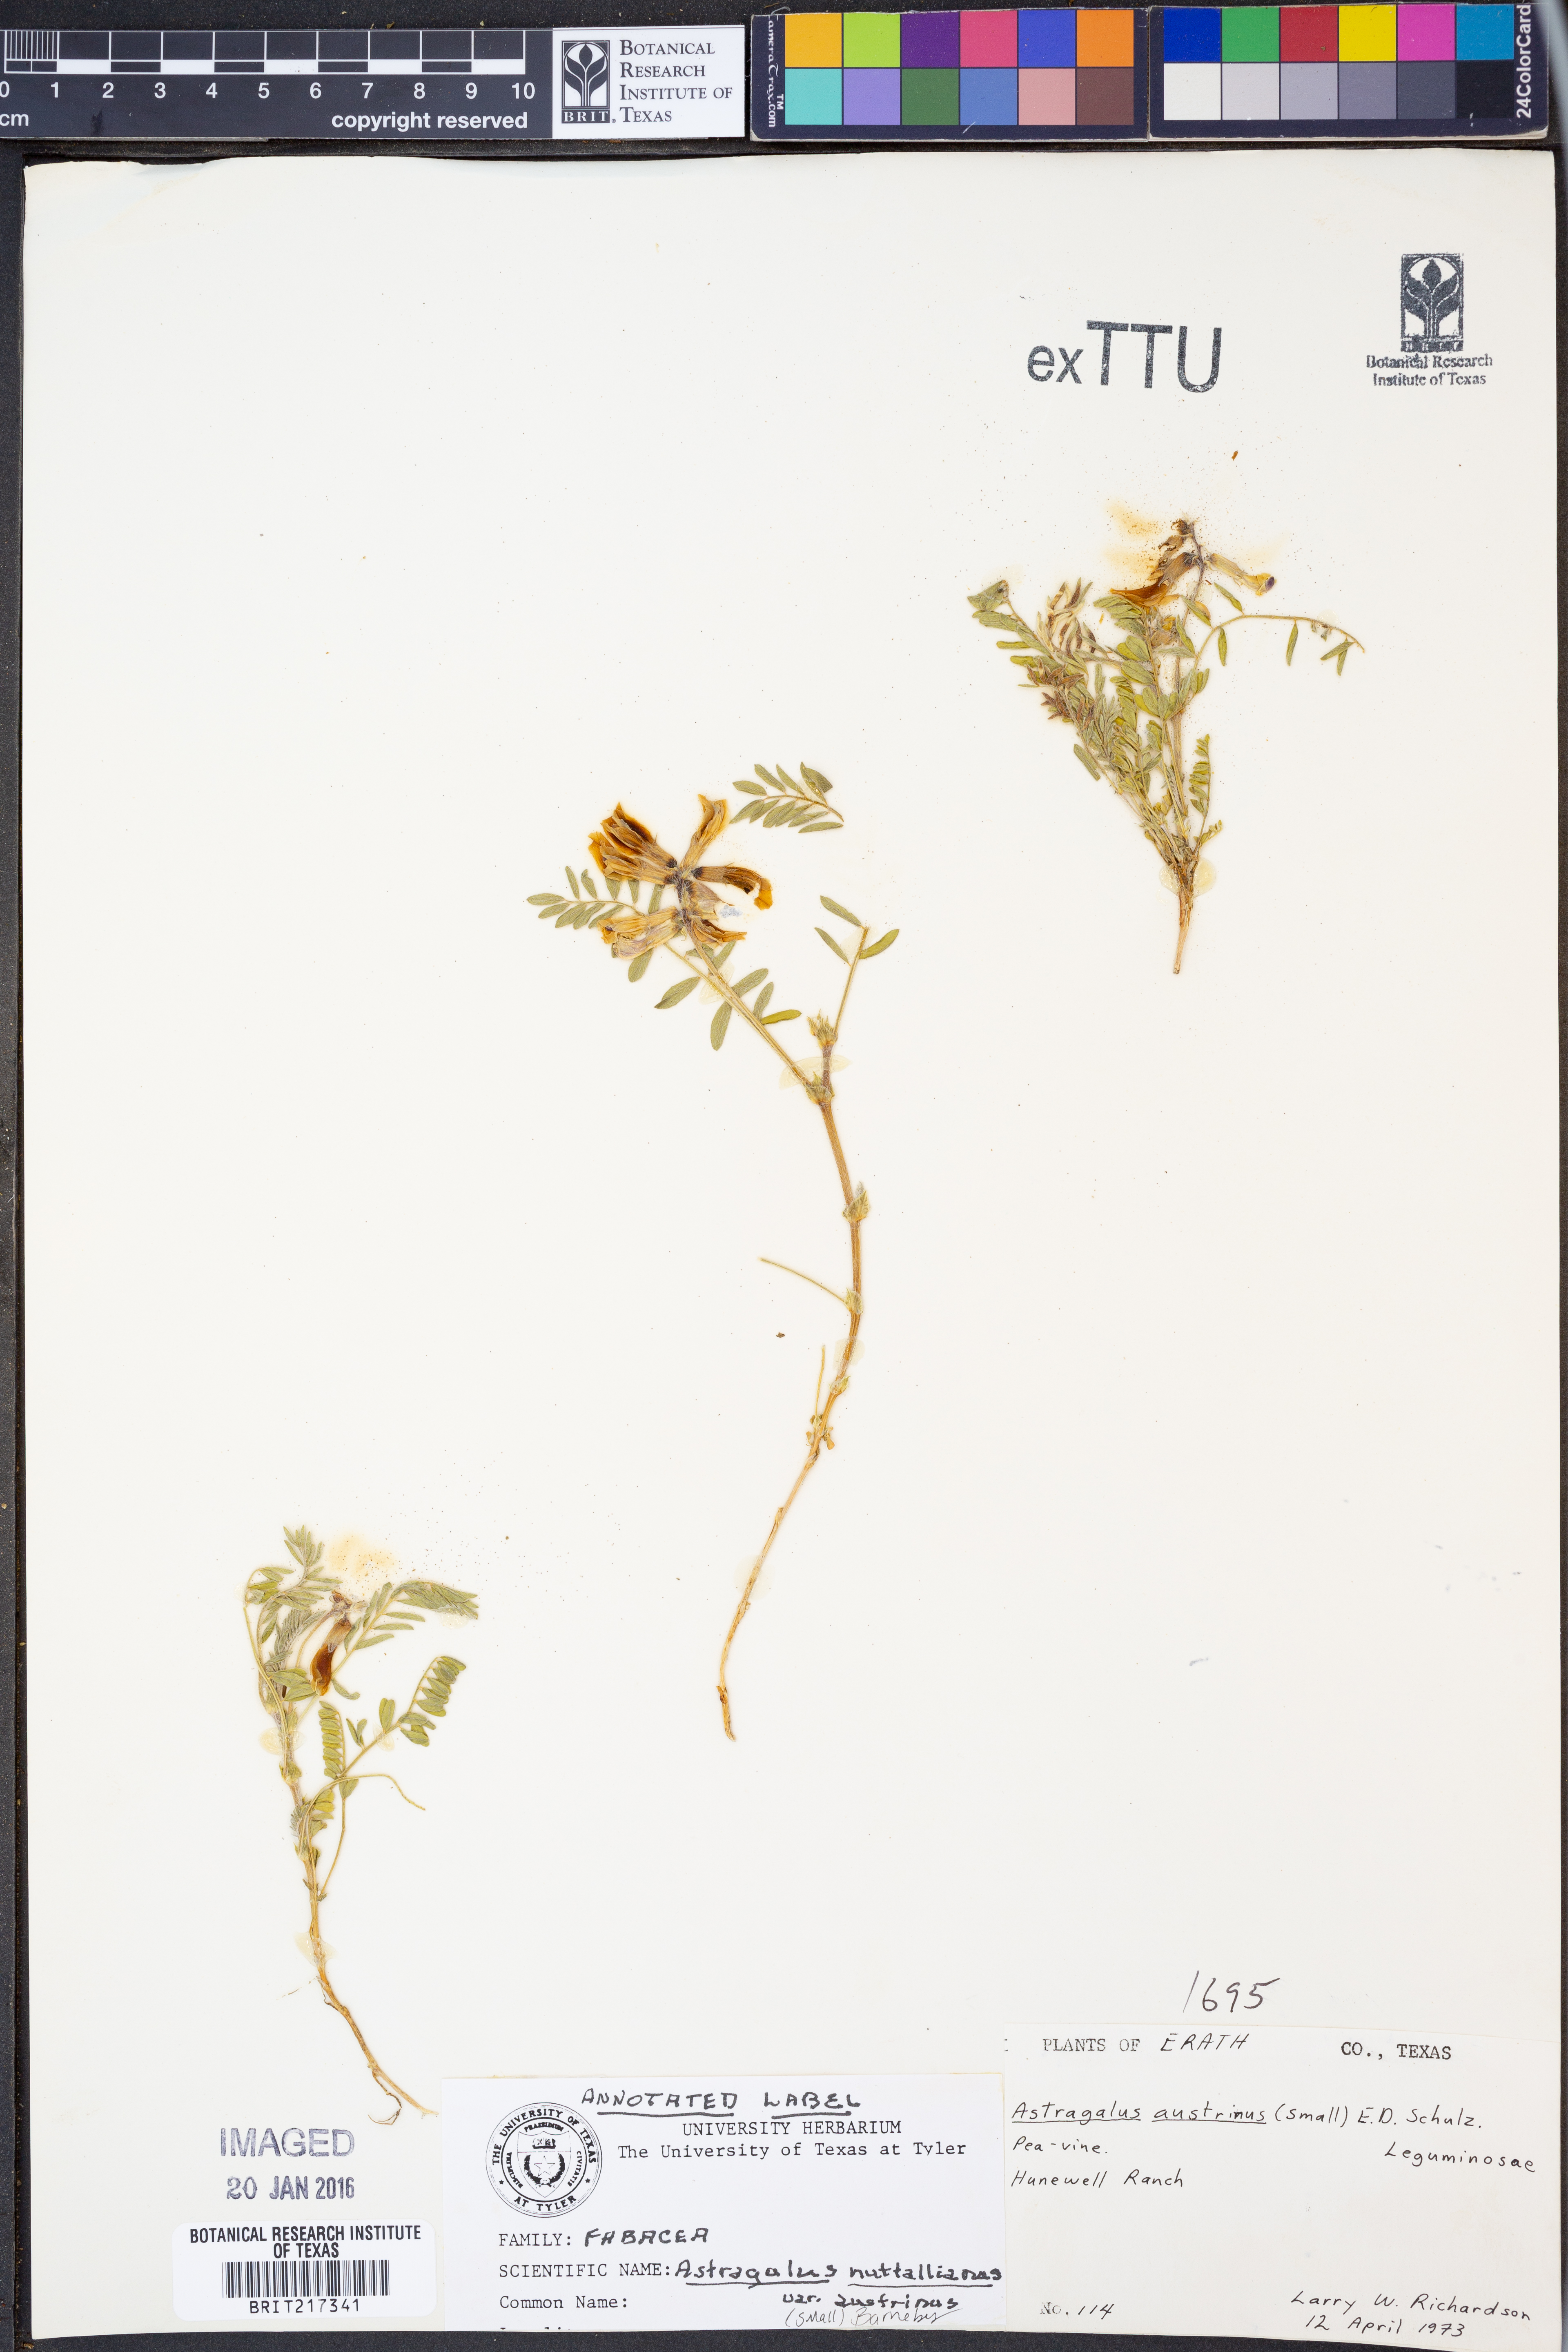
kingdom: Plantae
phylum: Tracheophyta
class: Magnoliopsida
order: Fabales
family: Fabaceae
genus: Astragalus
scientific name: Astragalus nuttallianus
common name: Smallflowered milkvetch
